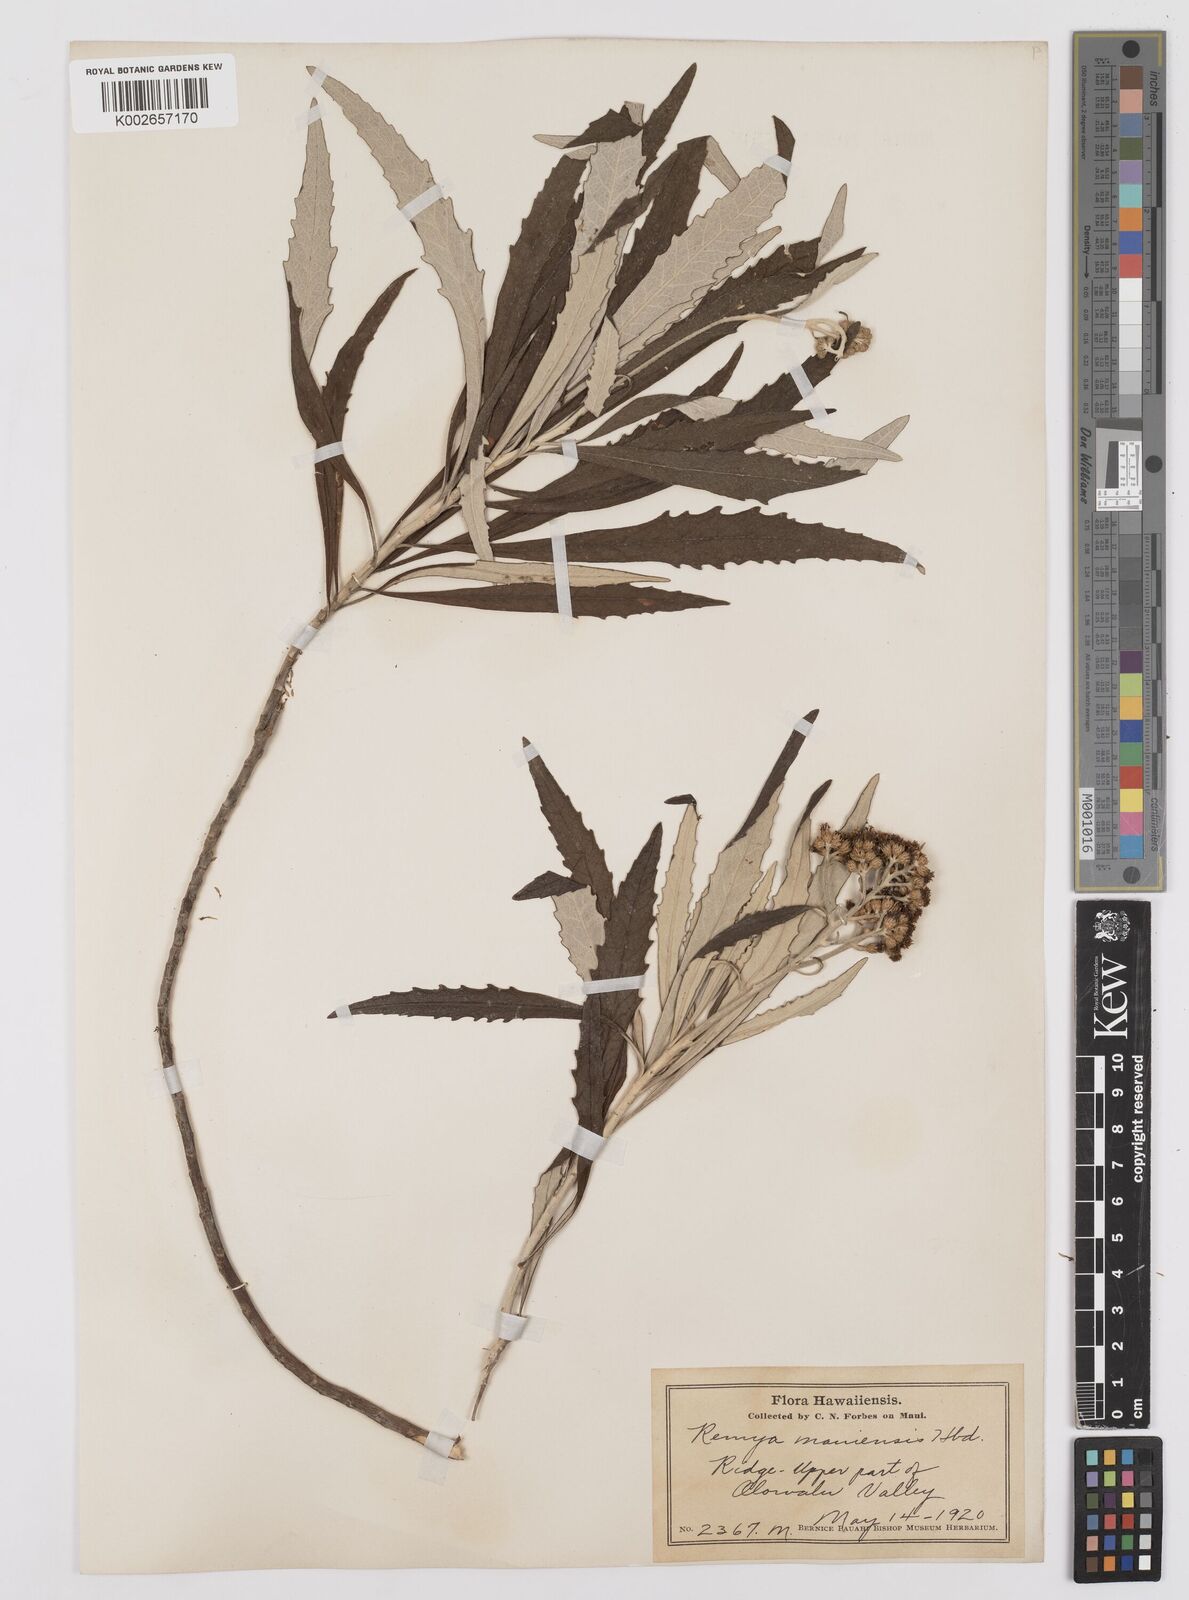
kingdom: Plantae
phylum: Tracheophyta
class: Magnoliopsida
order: Asterales
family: Asteraceae
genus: Remya
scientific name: Remya mauiensis
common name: Maui remya
